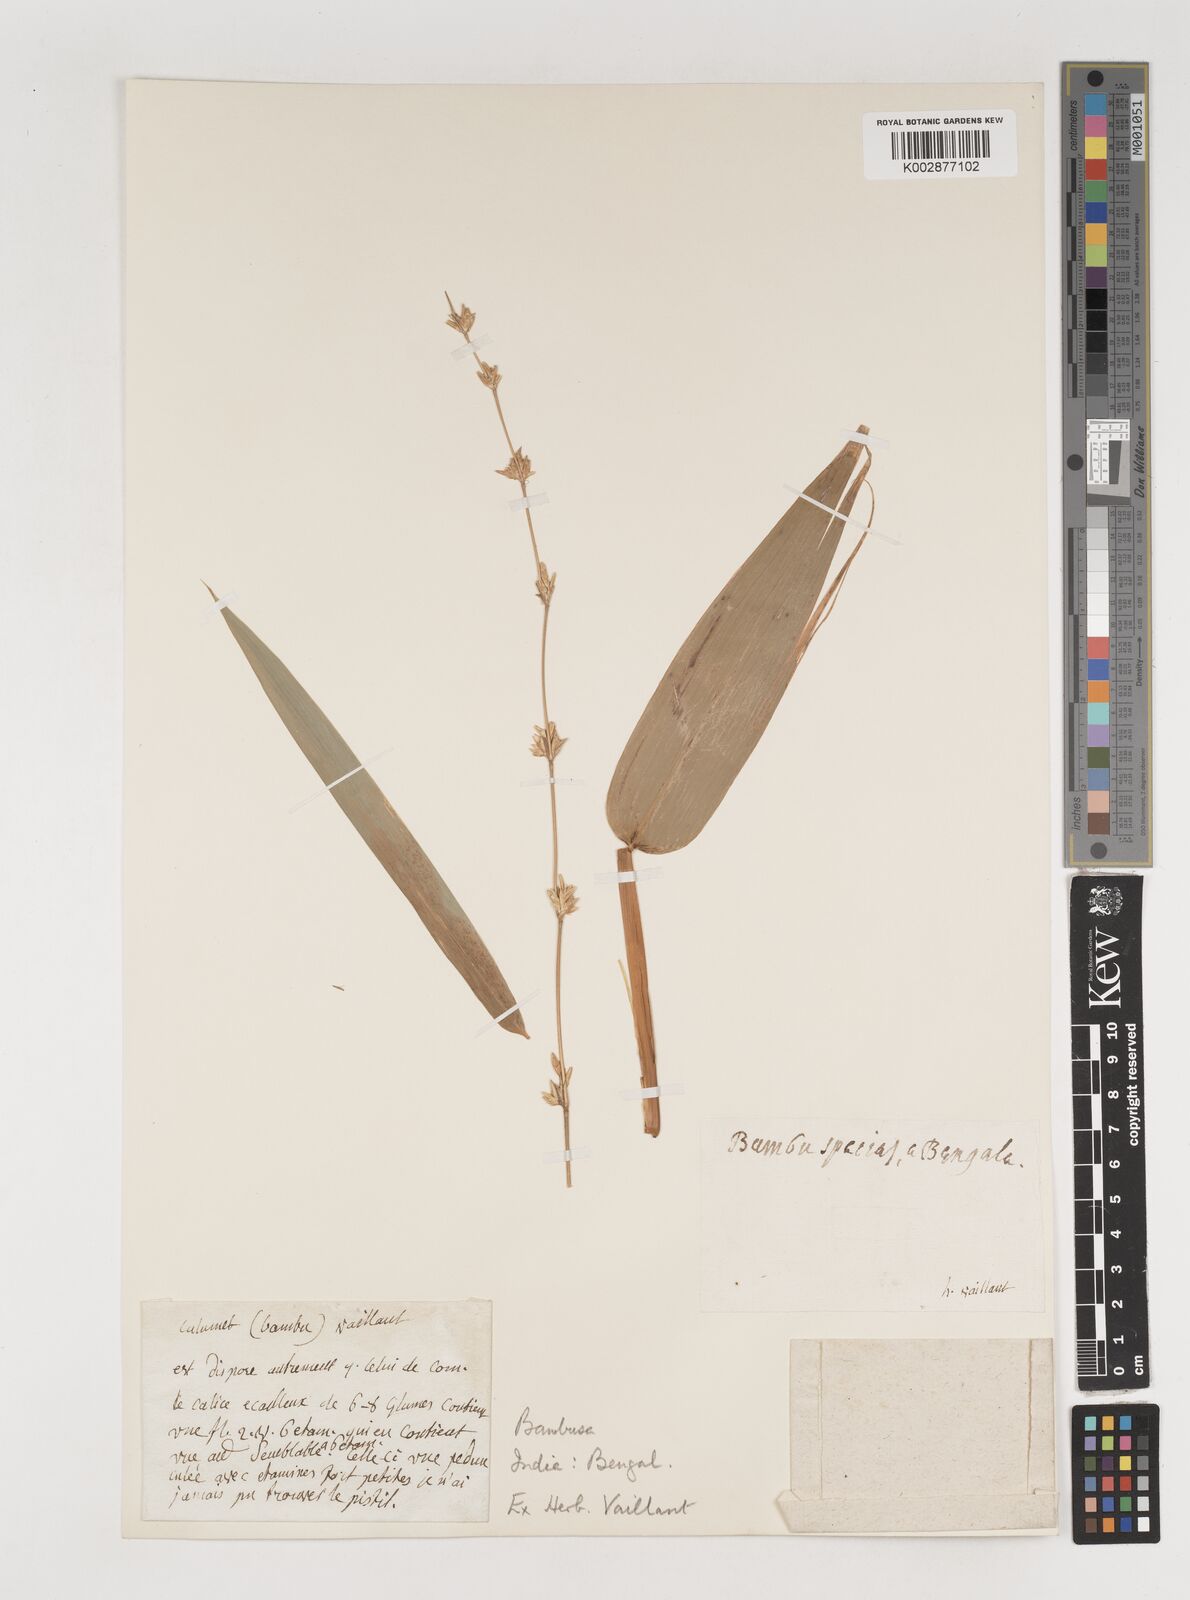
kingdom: Plantae
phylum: Tracheophyta
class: Liliopsida
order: Poales
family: Poaceae
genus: Bambusa
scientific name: Bambusa
